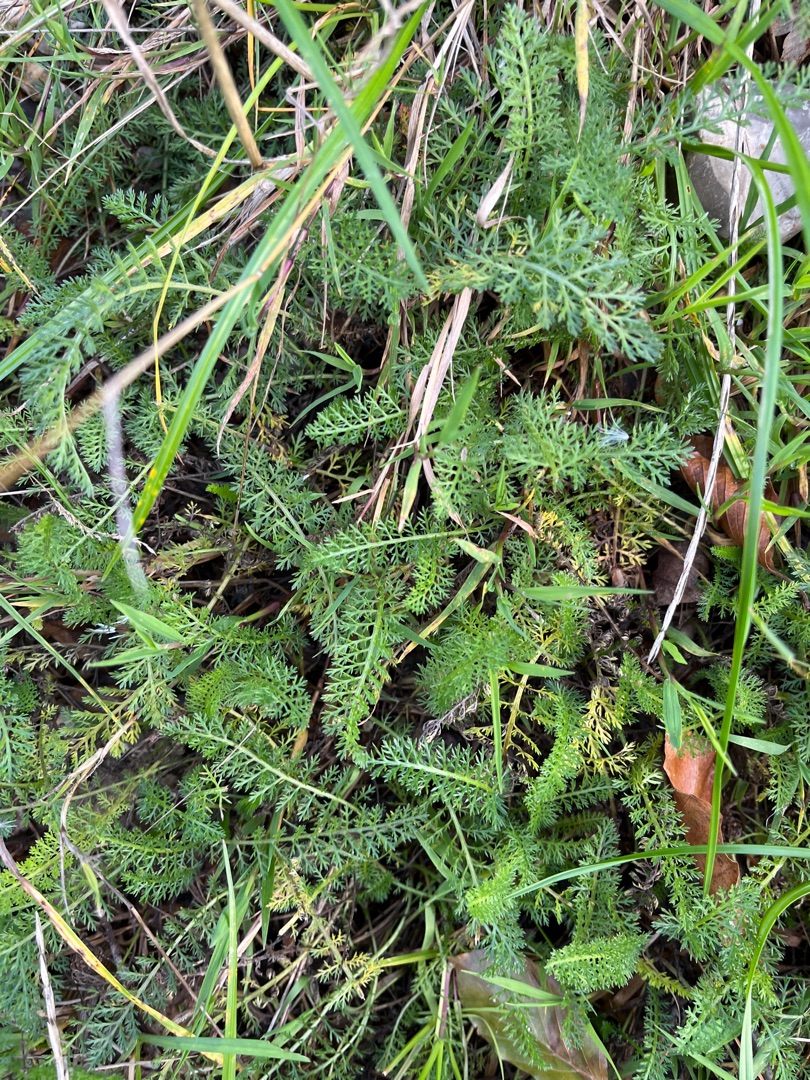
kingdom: Plantae
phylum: Tracheophyta
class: Magnoliopsida
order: Asterales
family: Asteraceae
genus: Achillea
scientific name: Achillea millefolium
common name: Almindelig røllike
